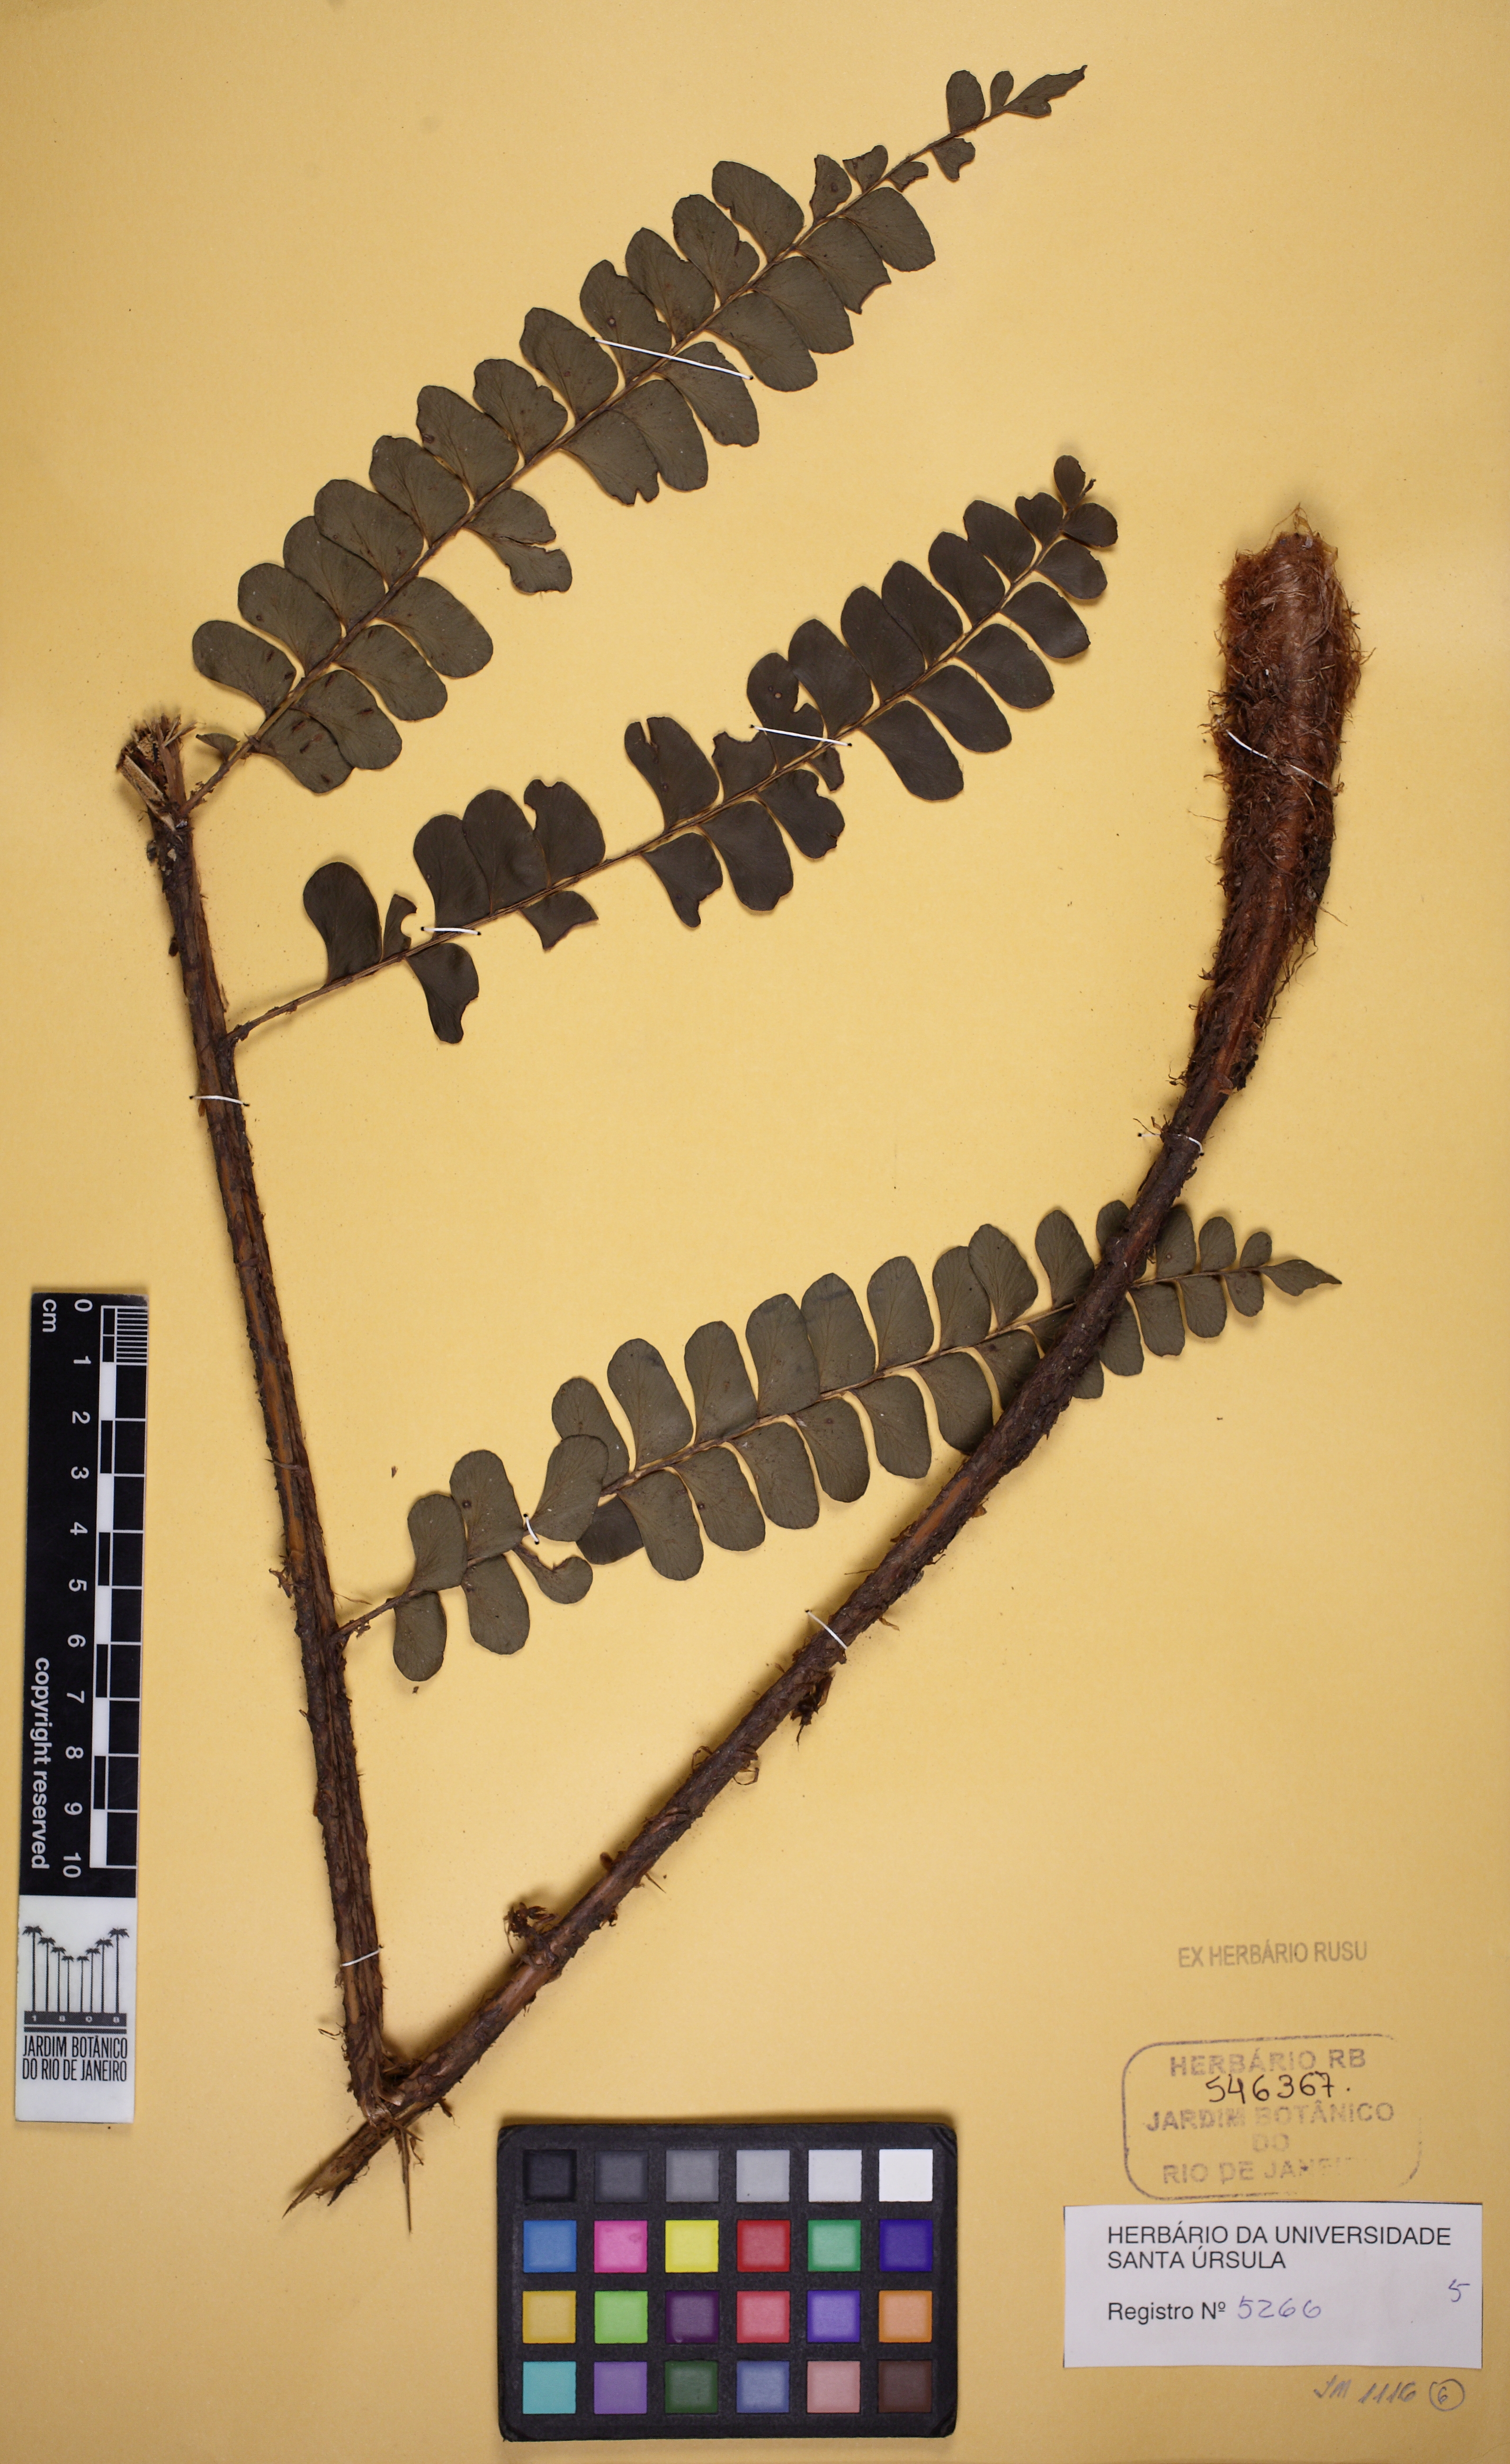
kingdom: Plantae
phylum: Tracheophyta
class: Polypodiopsida
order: Polypodiales
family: Didymochlaenaceae
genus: Didymochlaena
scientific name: Didymochlaena truncatula
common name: Mahogany fern
